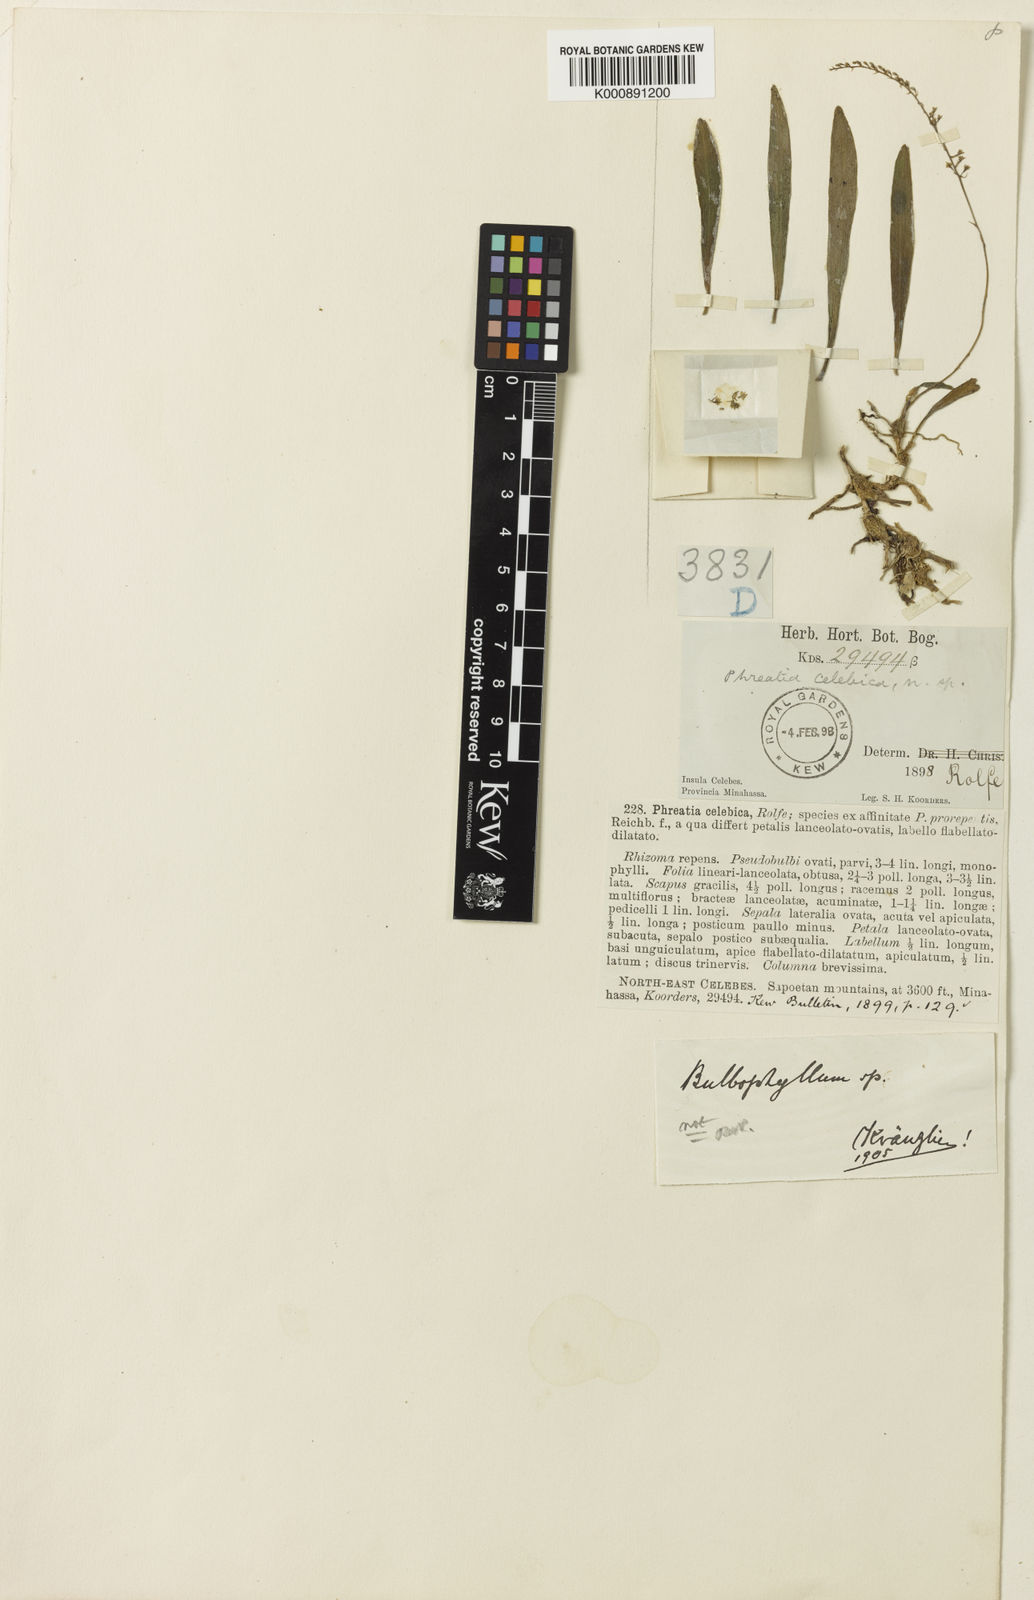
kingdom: Plantae
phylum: Tracheophyta
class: Liliopsida
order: Asparagales
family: Orchidaceae
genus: Phreatia
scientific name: Phreatia listrophora
